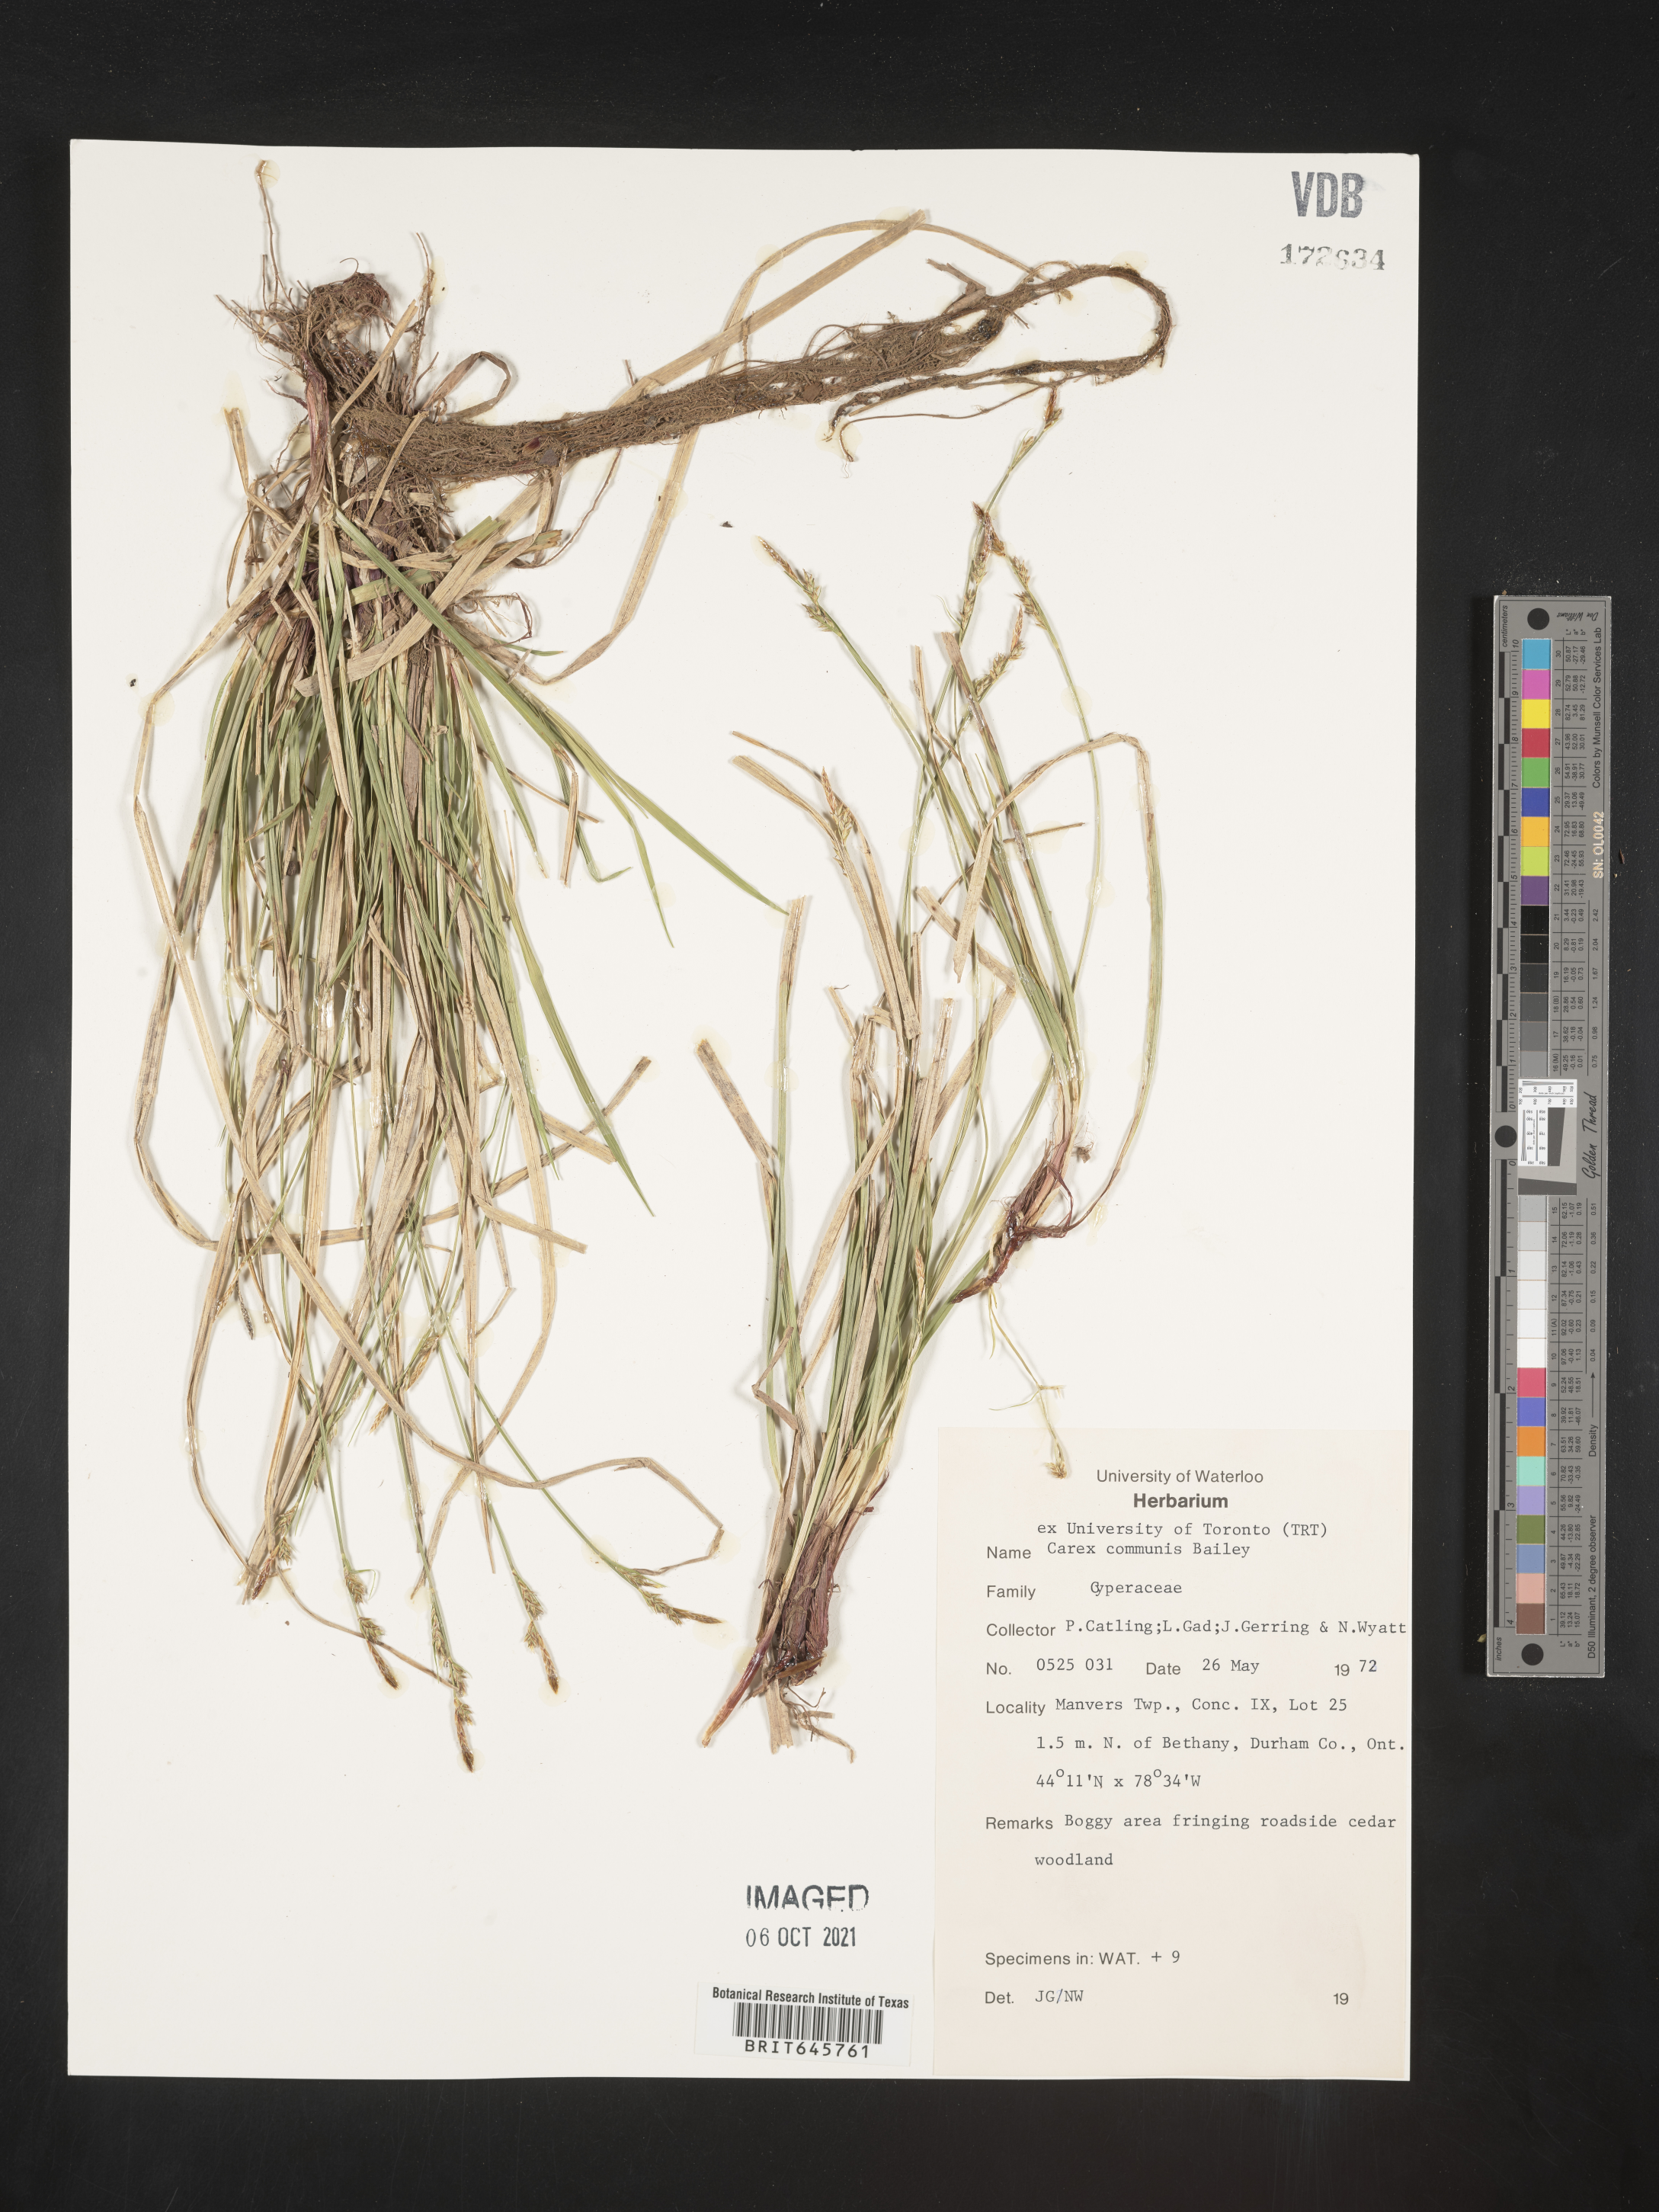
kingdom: Plantae
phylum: Tracheophyta
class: Liliopsida
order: Poales
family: Cyperaceae
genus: Carex
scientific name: Carex communis
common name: Colonial oak sedge
